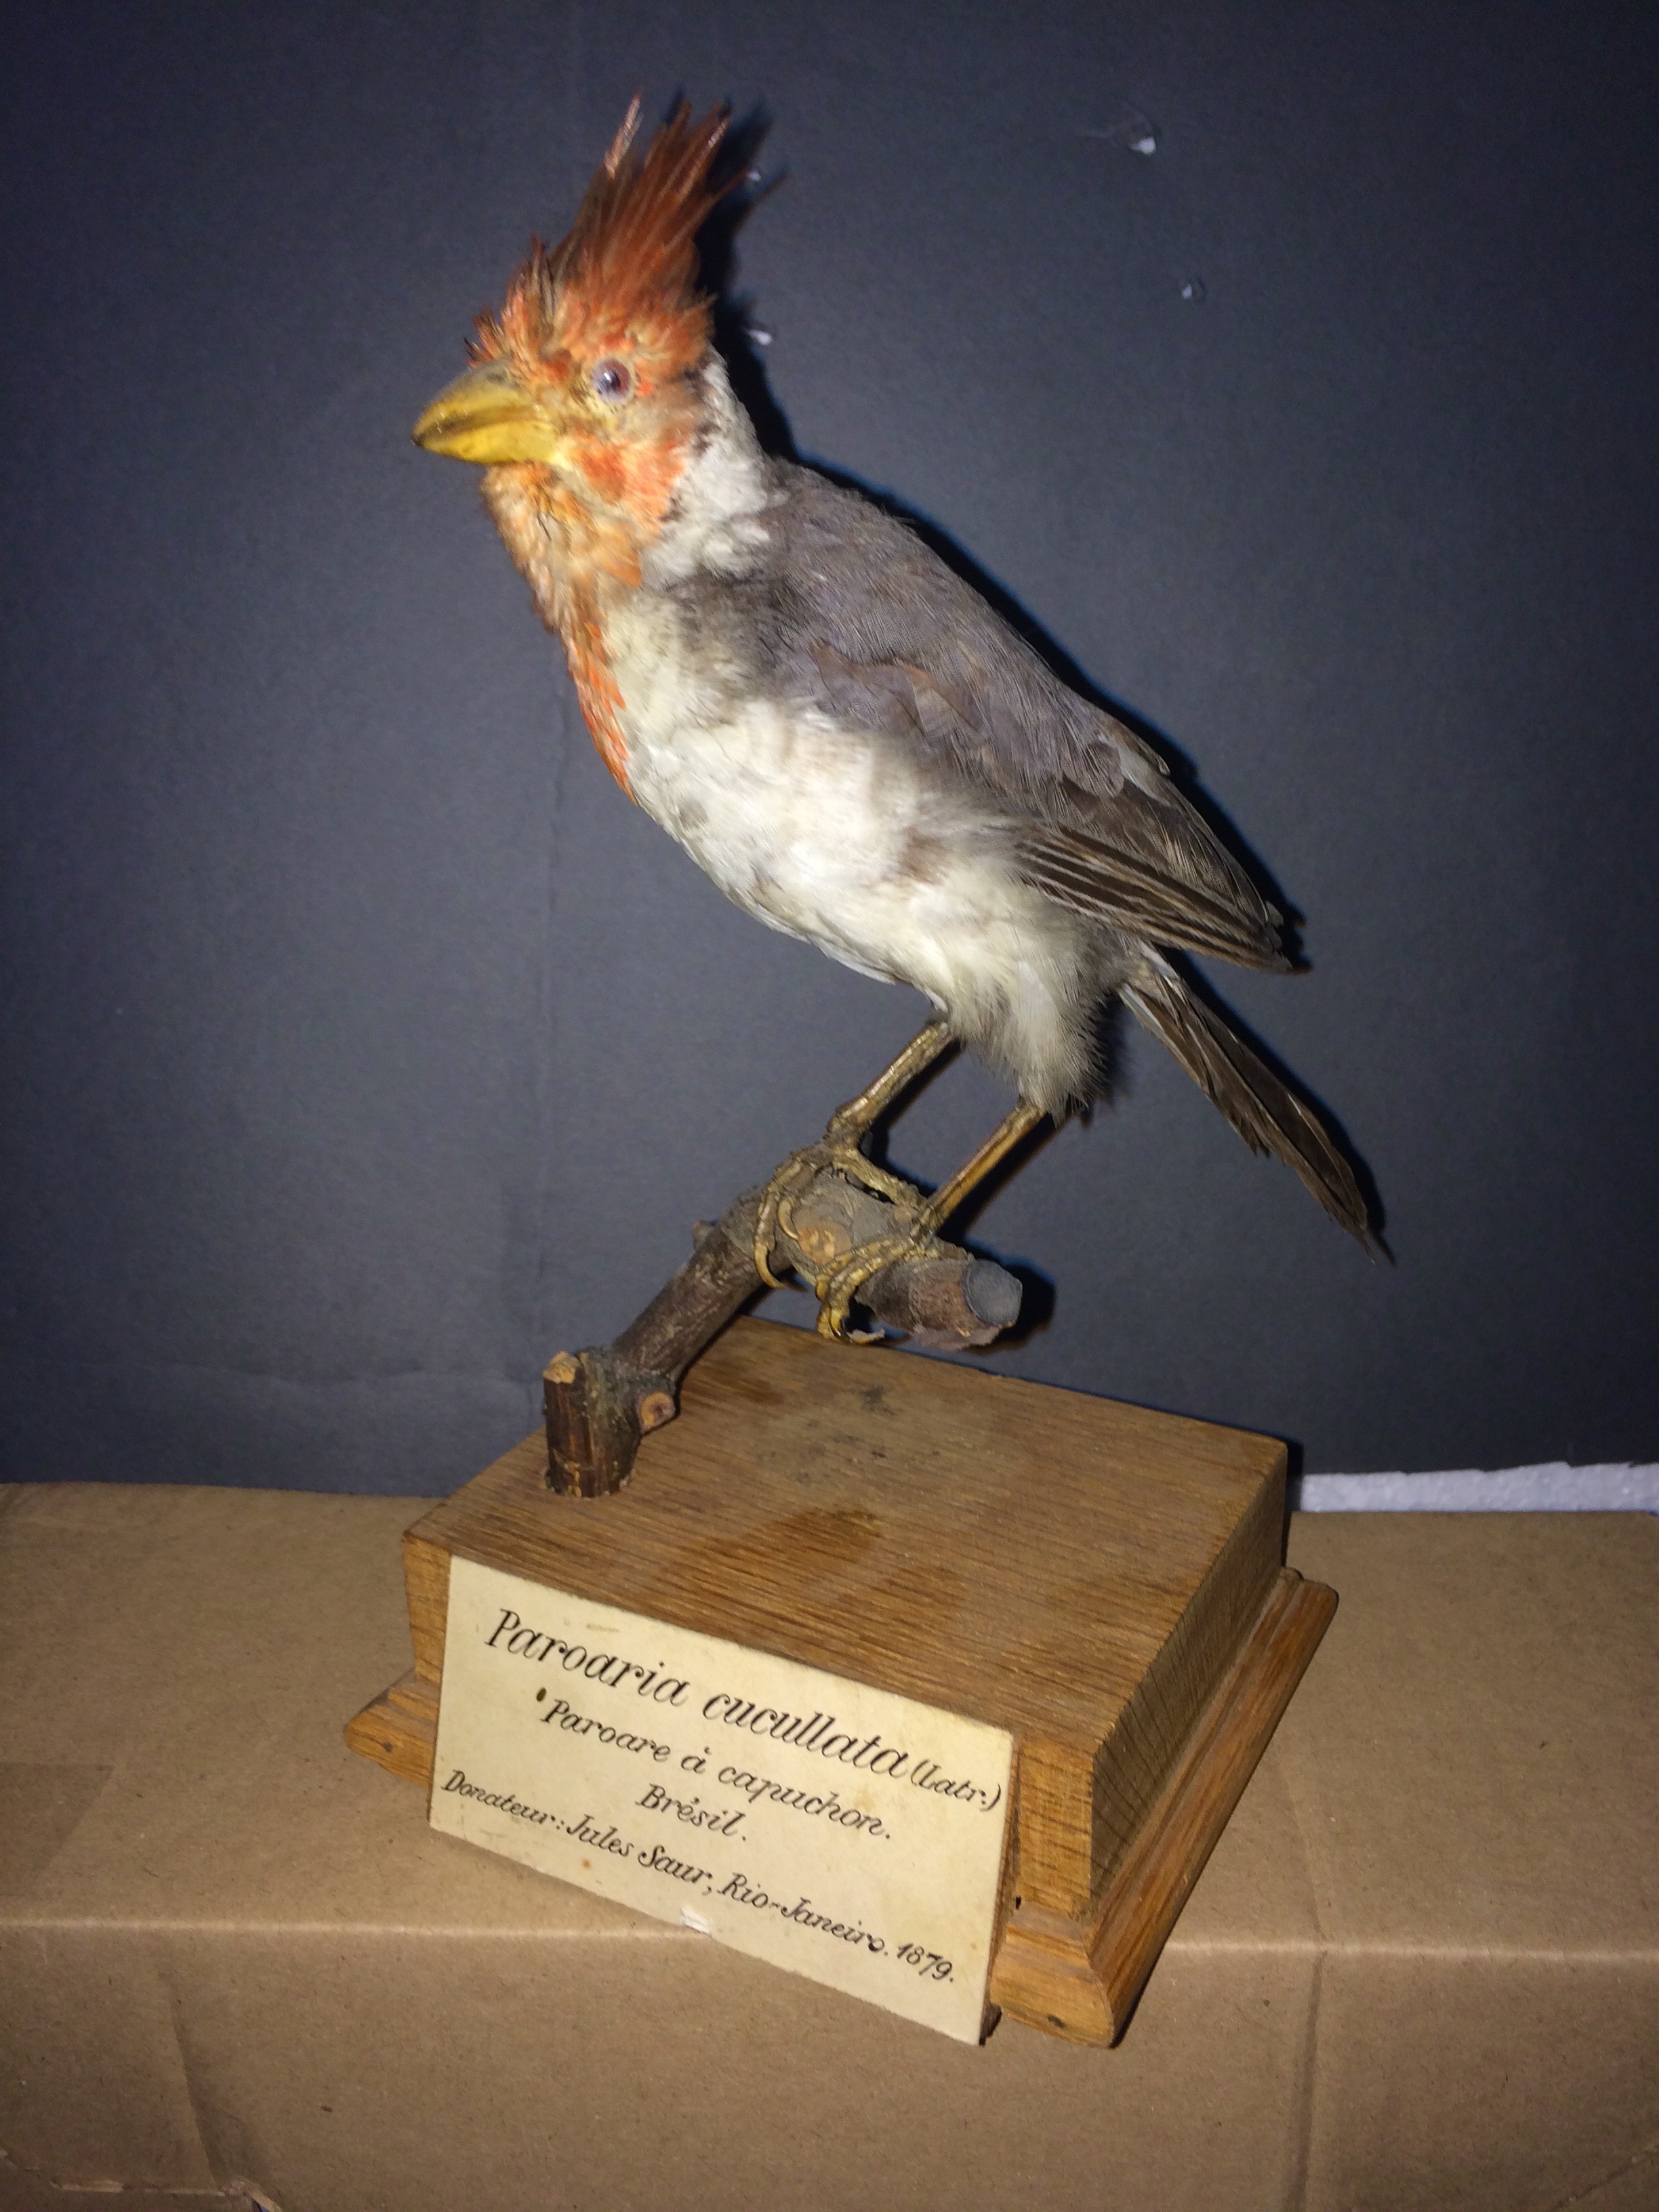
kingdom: Animalia
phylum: Chordata
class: Aves
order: Passeriformes
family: Thraupidae
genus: Paroaria
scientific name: Paroaria coronata
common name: Red-crested cardinal
